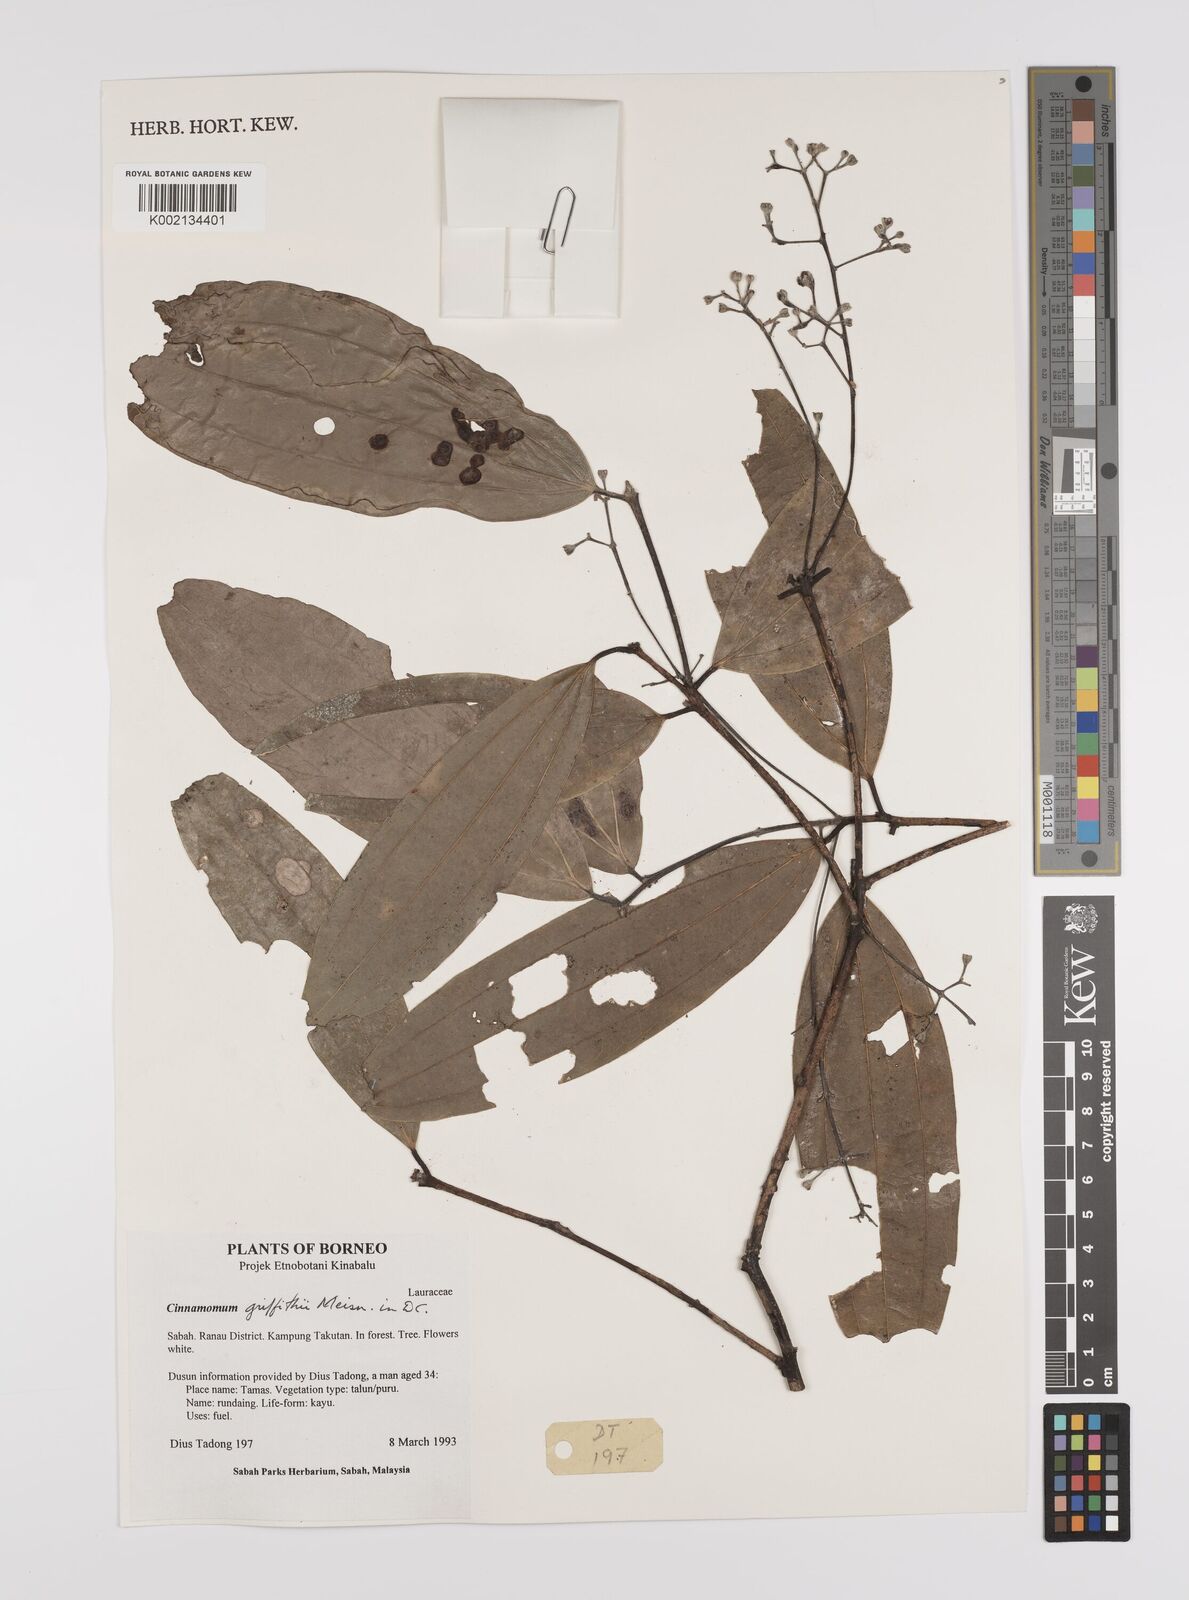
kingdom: Plantae
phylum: Tracheophyta
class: Magnoliopsida
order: Laurales
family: Lauraceae
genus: Cinnamomum
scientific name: Cinnamomum iners
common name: Wild cinnamon
